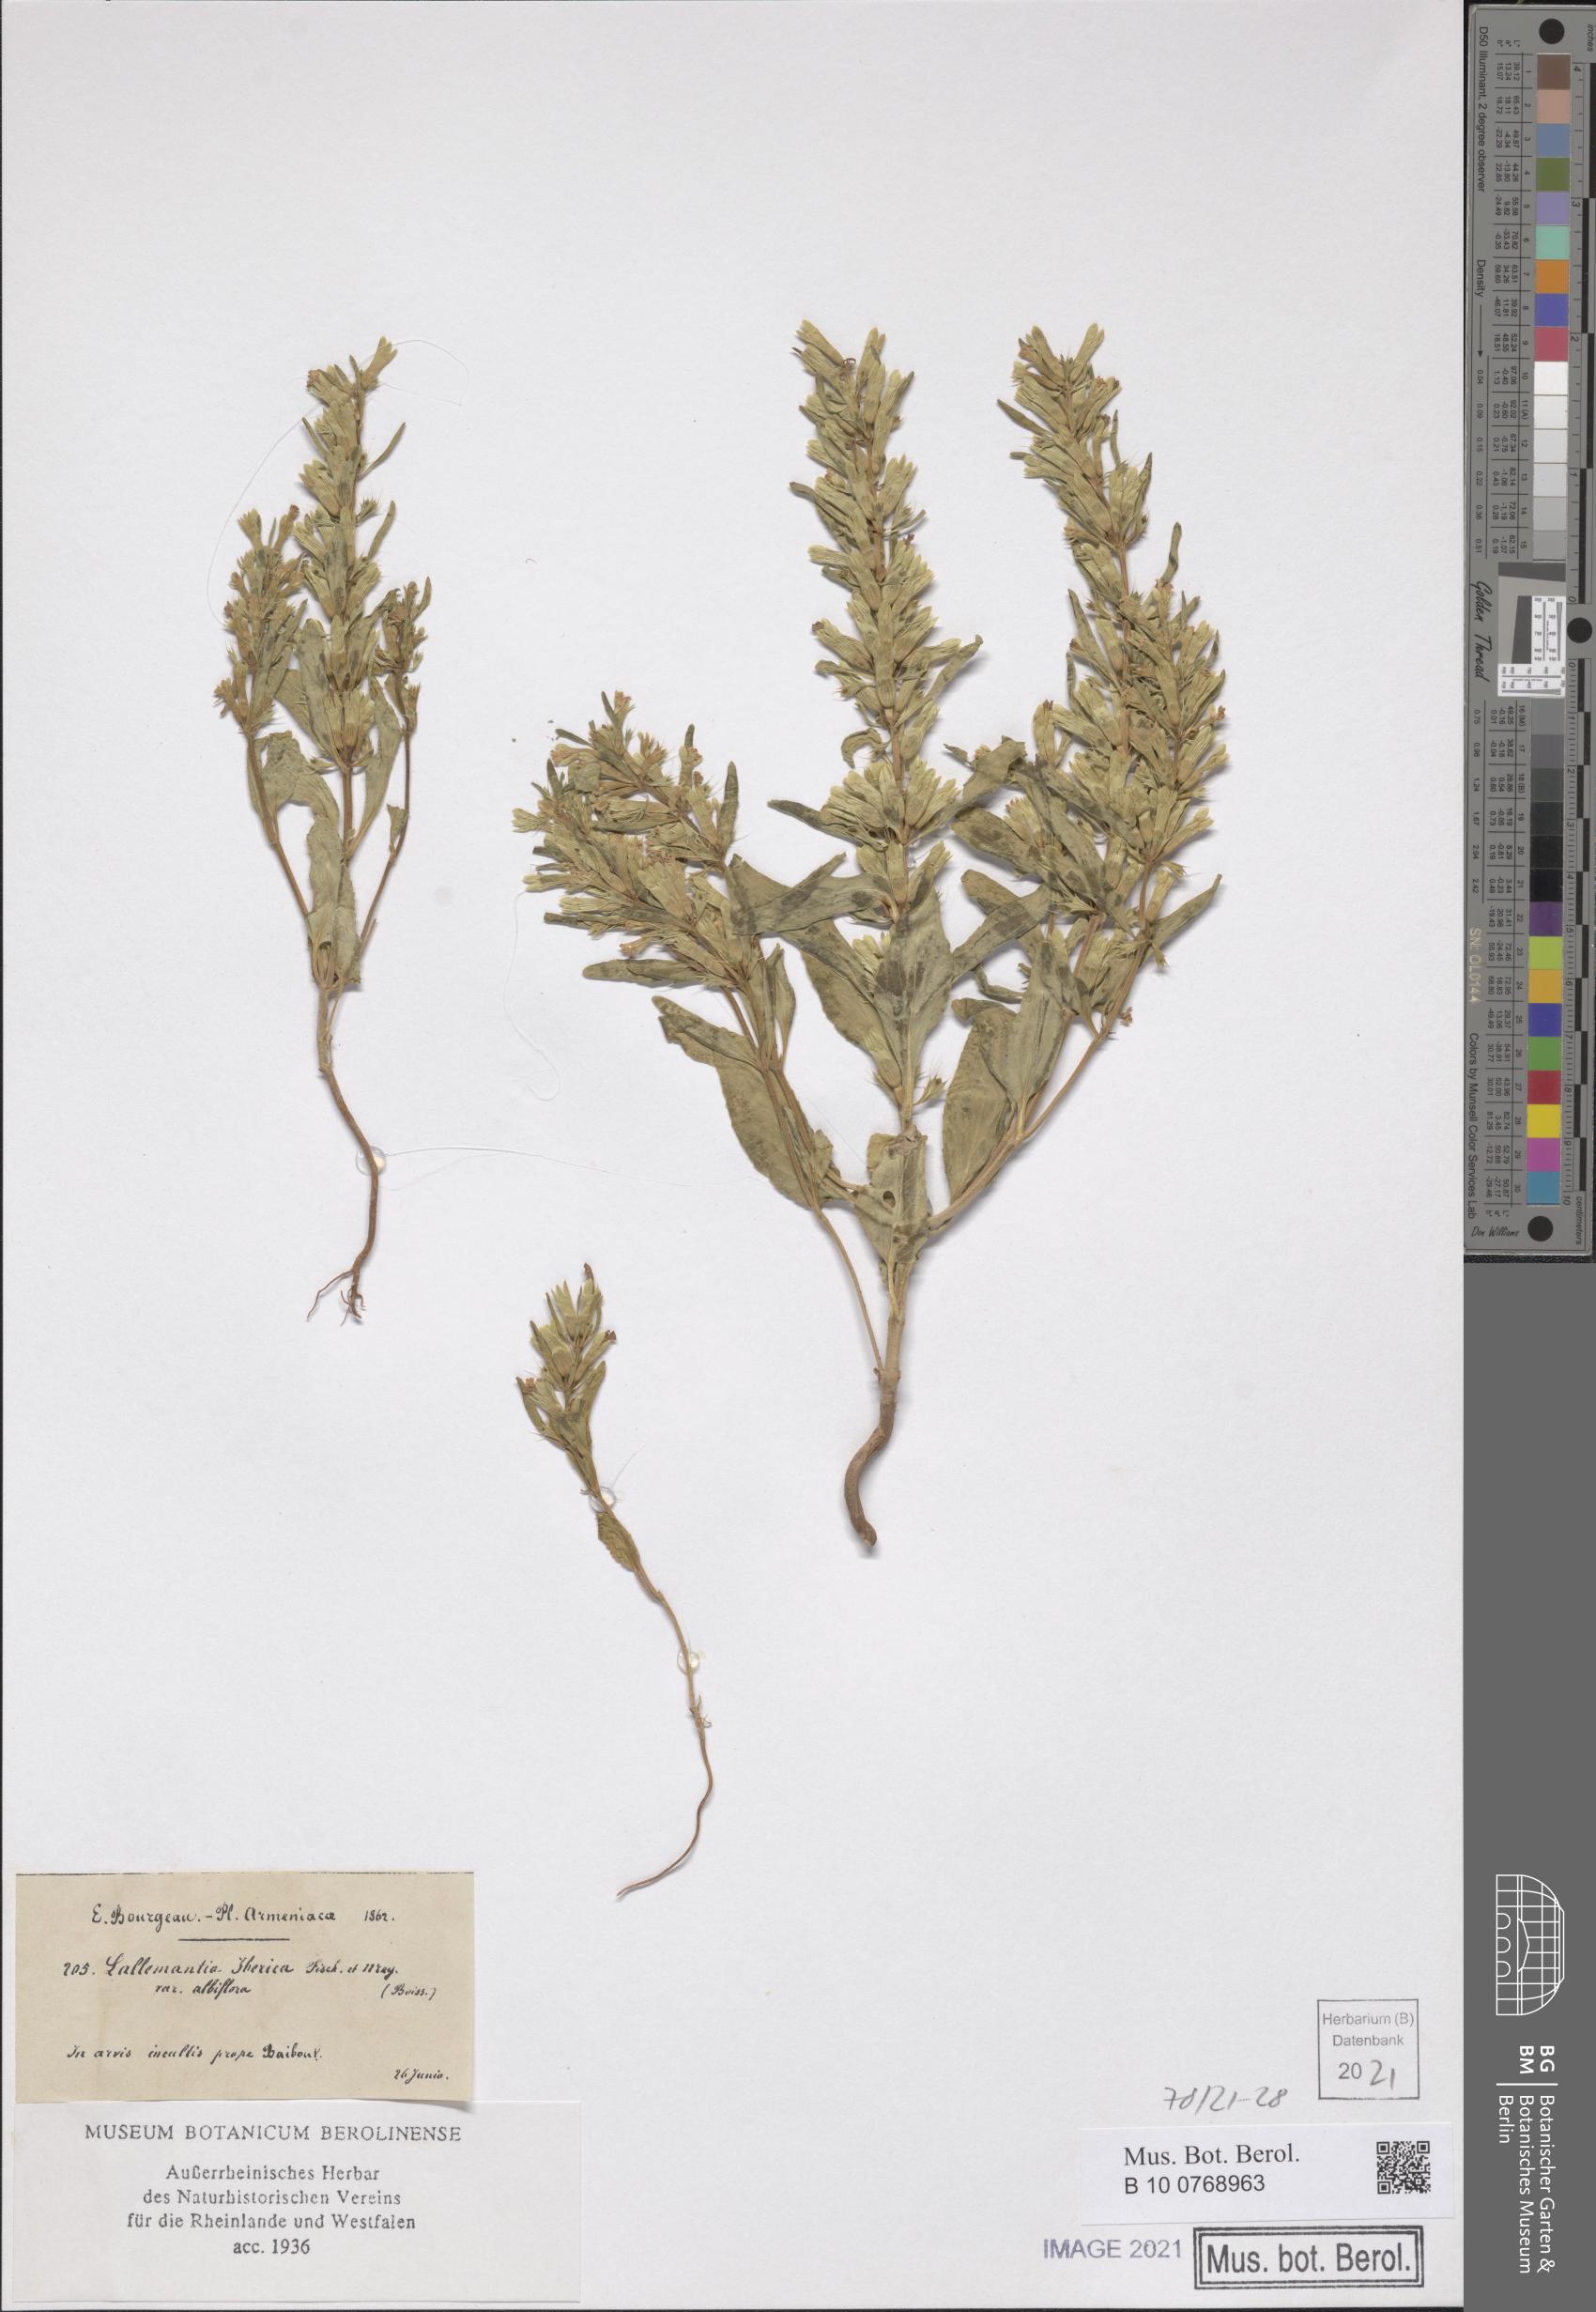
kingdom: Plantae
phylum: Tracheophyta
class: Magnoliopsida
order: Lamiales
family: Lamiaceae
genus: Lallemantia
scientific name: Lallemantia iberica
